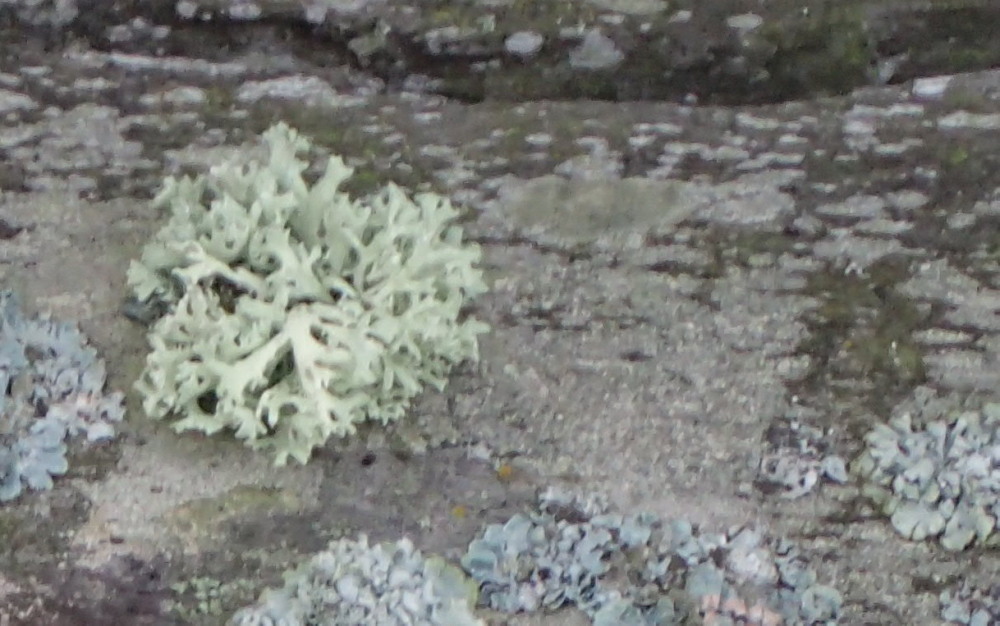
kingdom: Fungi
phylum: Ascomycota
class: Lecanoromycetes
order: Lecanorales
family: Parmeliaceae
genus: Evernia
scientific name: Evernia prunastri
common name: almindelig slåenlav
